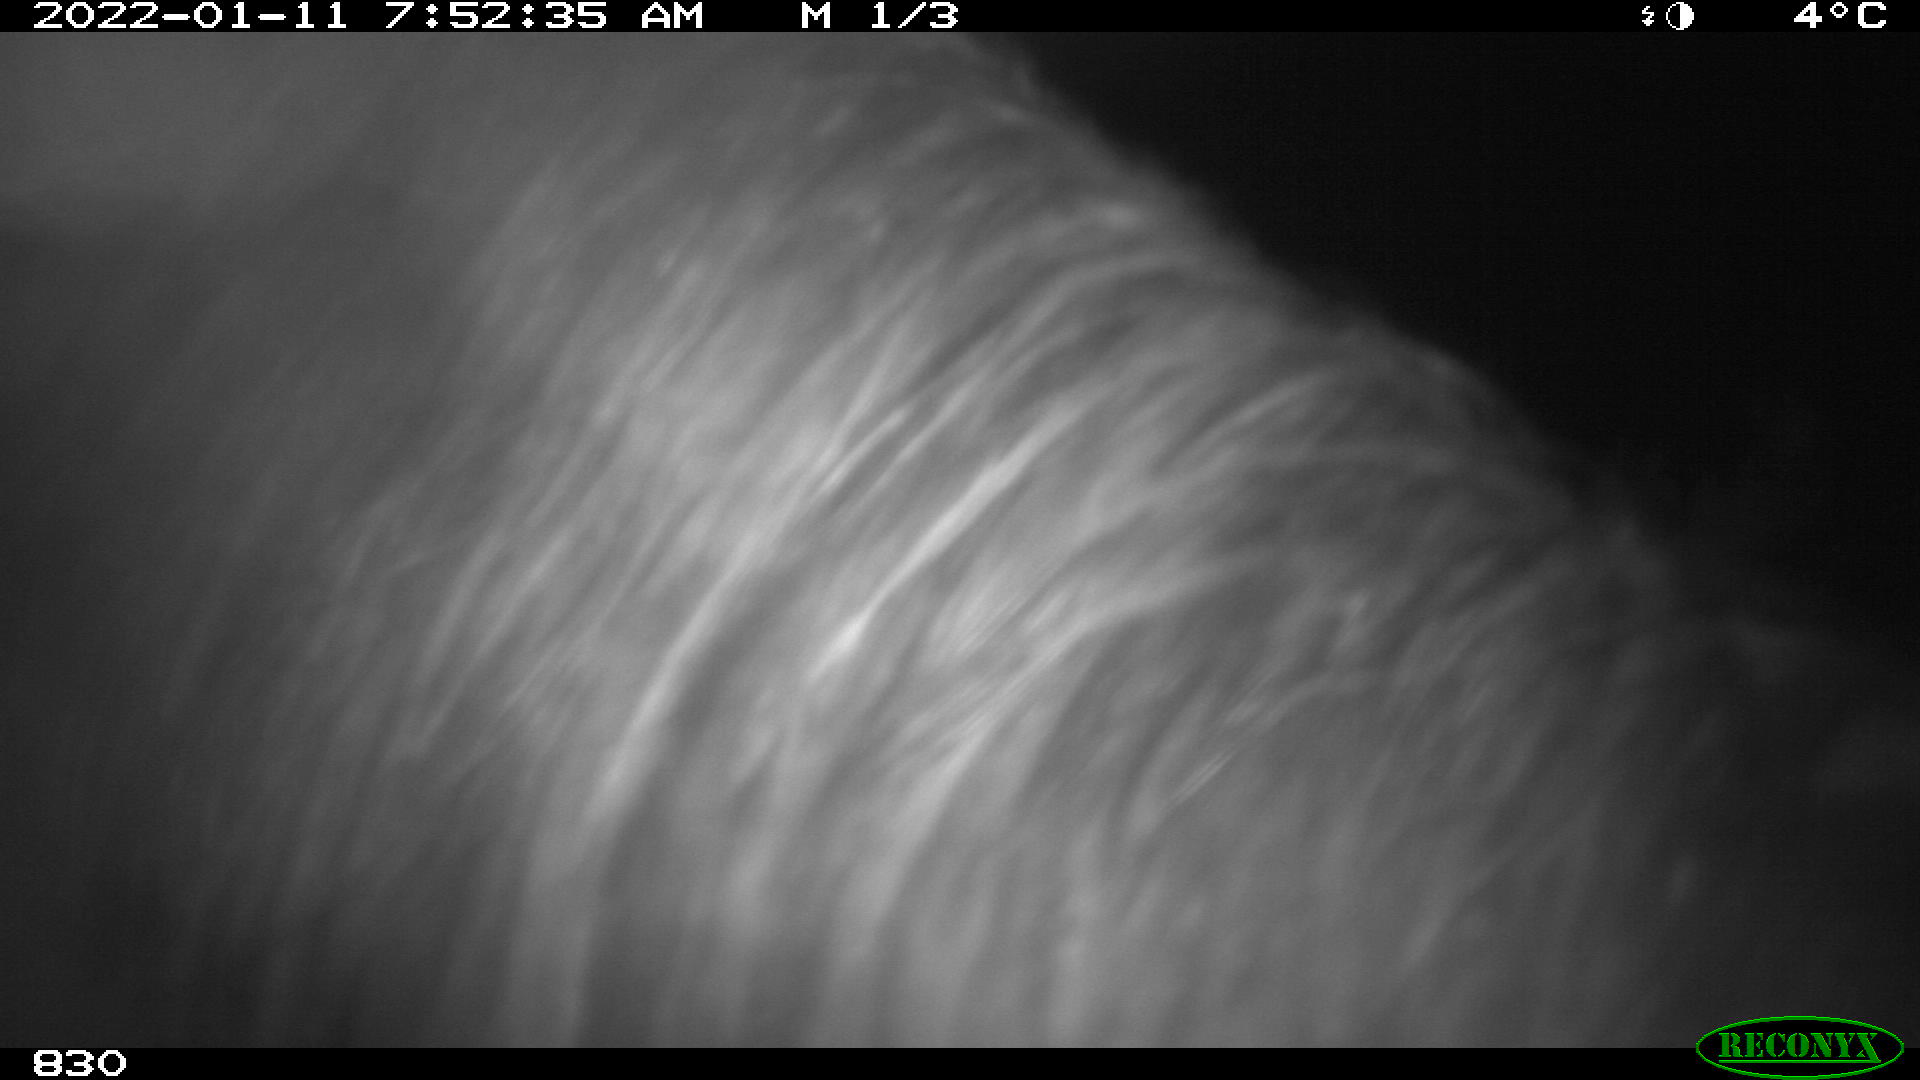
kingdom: Animalia
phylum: Chordata
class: Mammalia
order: Perissodactyla
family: Equidae
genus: Equus
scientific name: Equus caballus
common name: Horse
